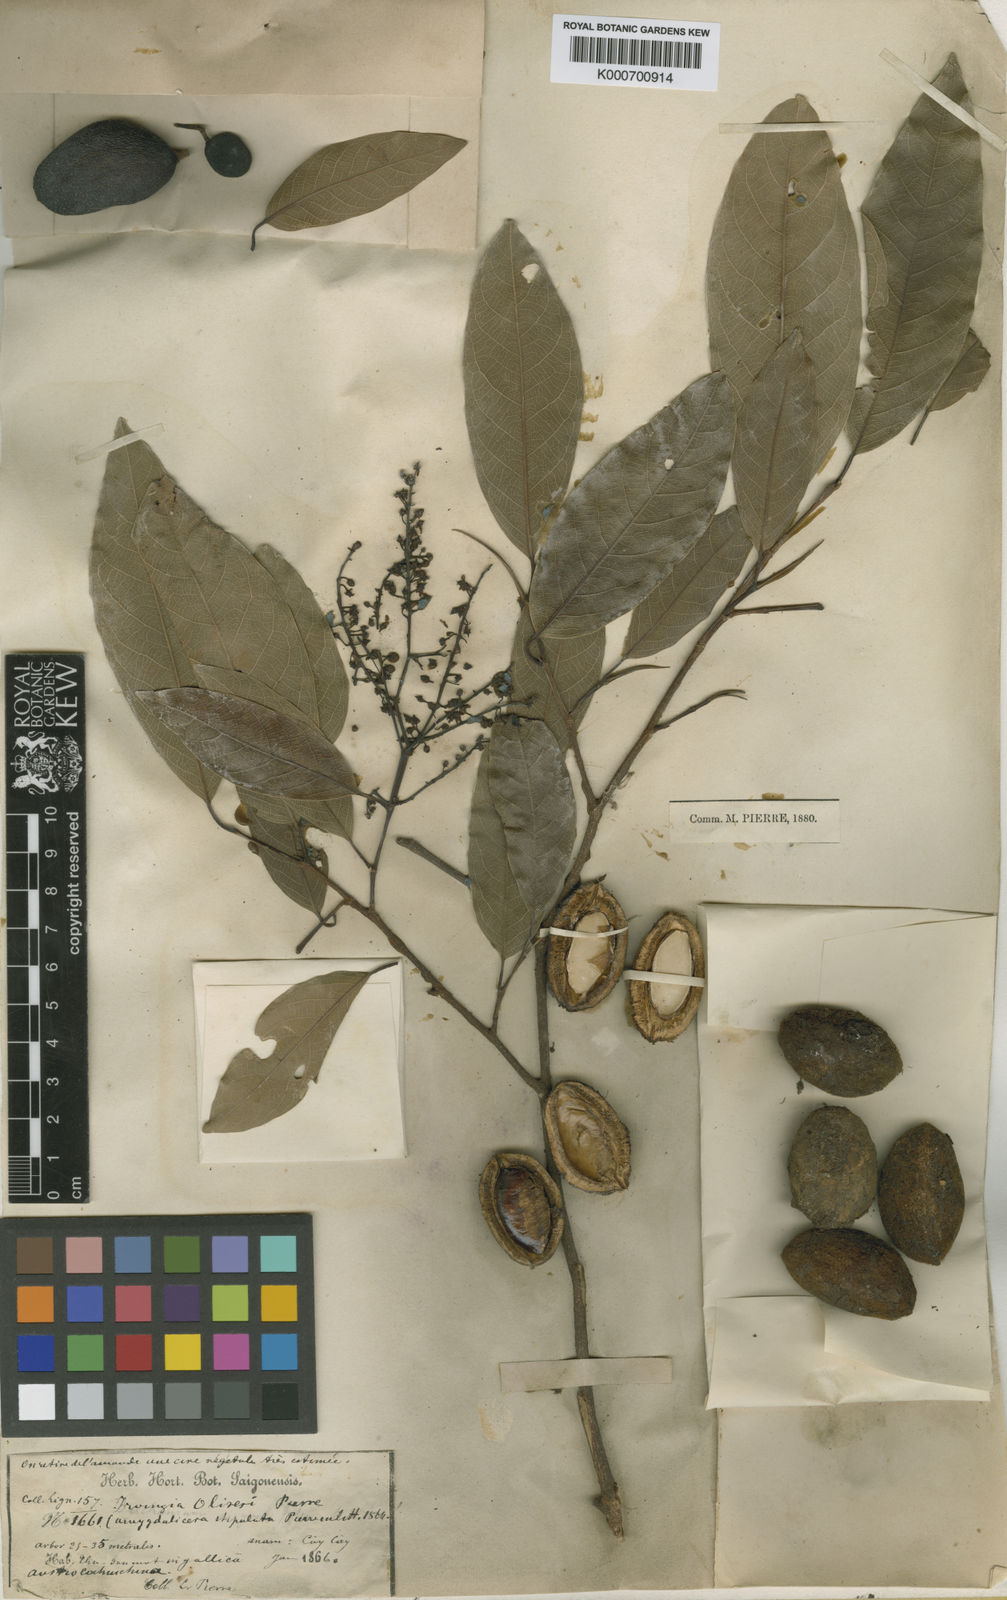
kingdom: Plantae
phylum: Tracheophyta
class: Magnoliopsida
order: Malpighiales
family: Irvingiaceae
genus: Irvingia
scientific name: Irvingia
